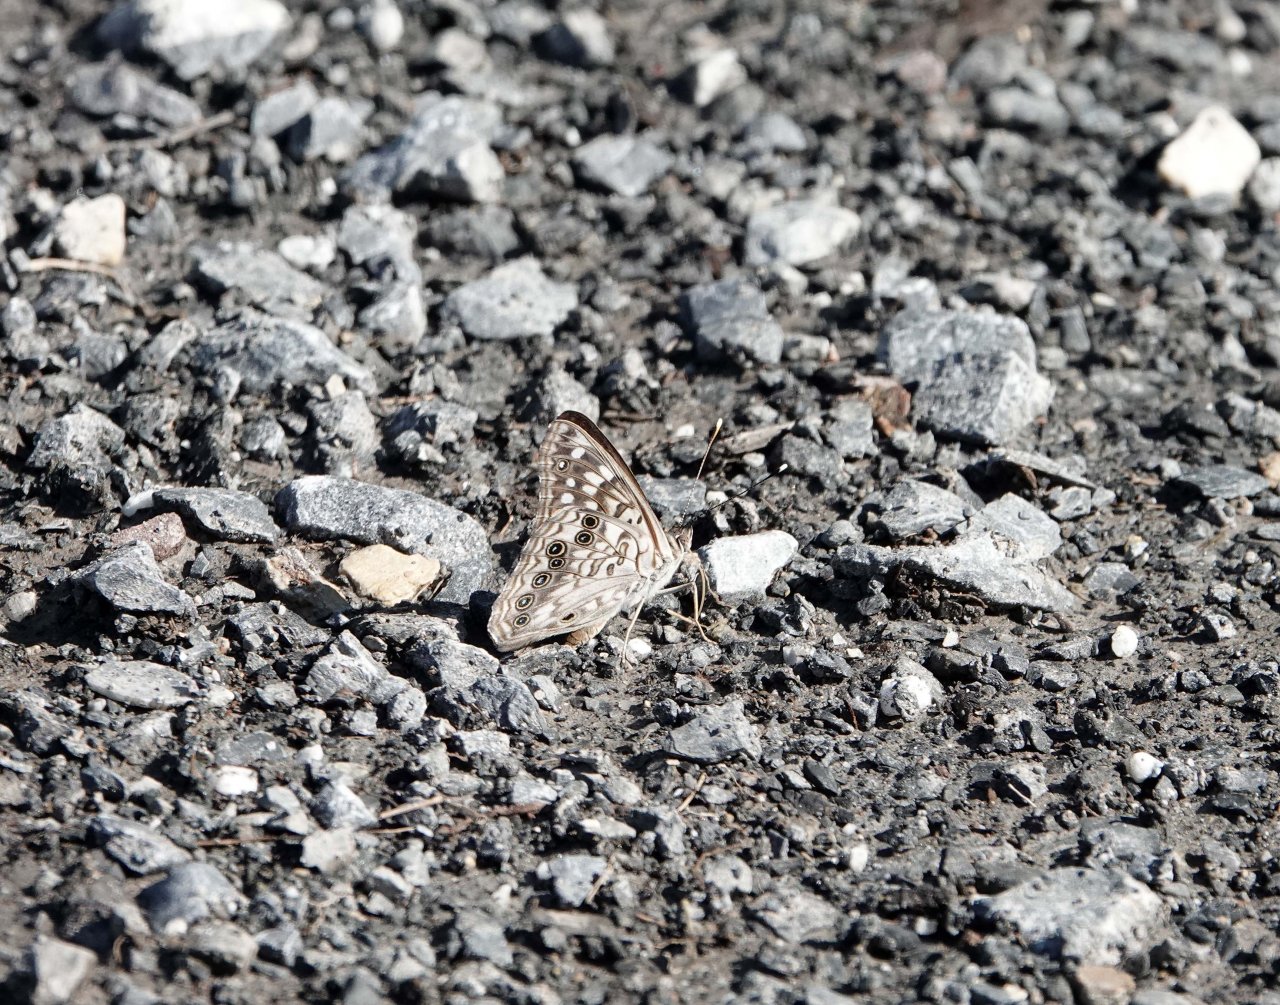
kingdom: Animalia
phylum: Arthropoda
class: Insecta
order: Lepidoptera
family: Nymphalidae
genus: Asterocampa
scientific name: Asterocampa celtis
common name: Hackberry Emperor
